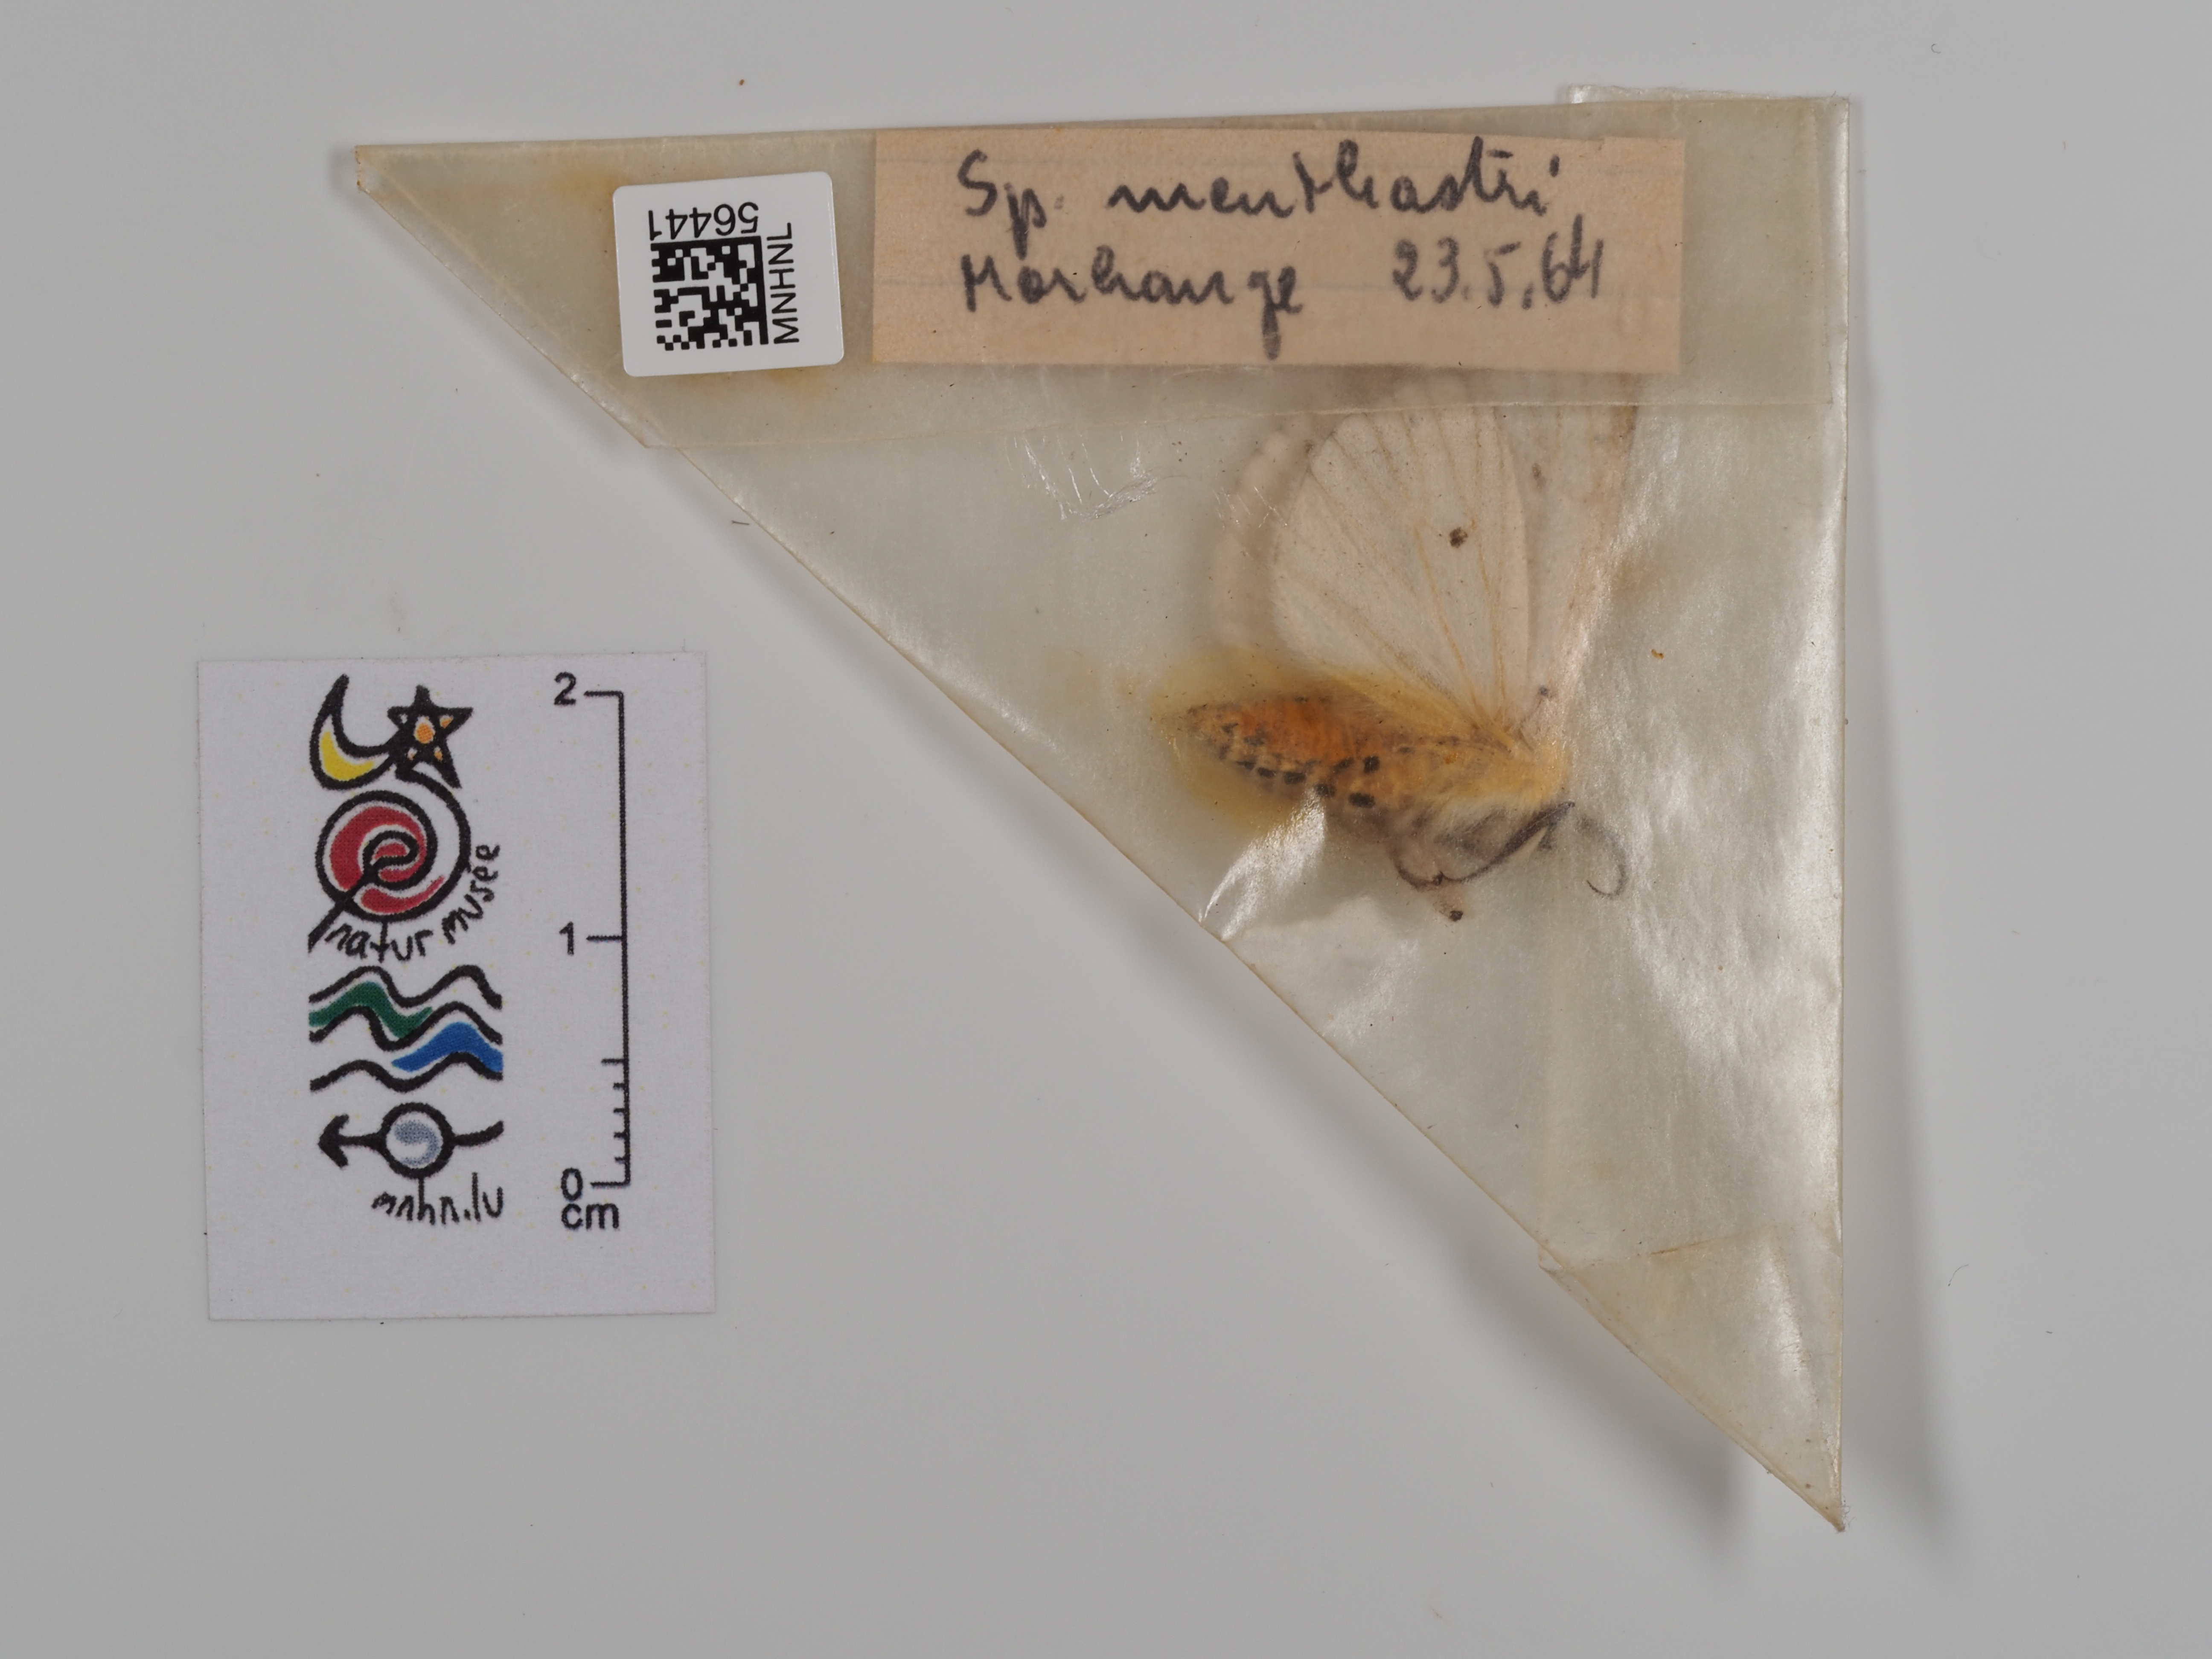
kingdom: Animalia
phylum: Arthropoda
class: Insecta
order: Lepidoptera
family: Erebidae
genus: Spilosoma
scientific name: Spilosoma lubricipeda
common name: White ermine
